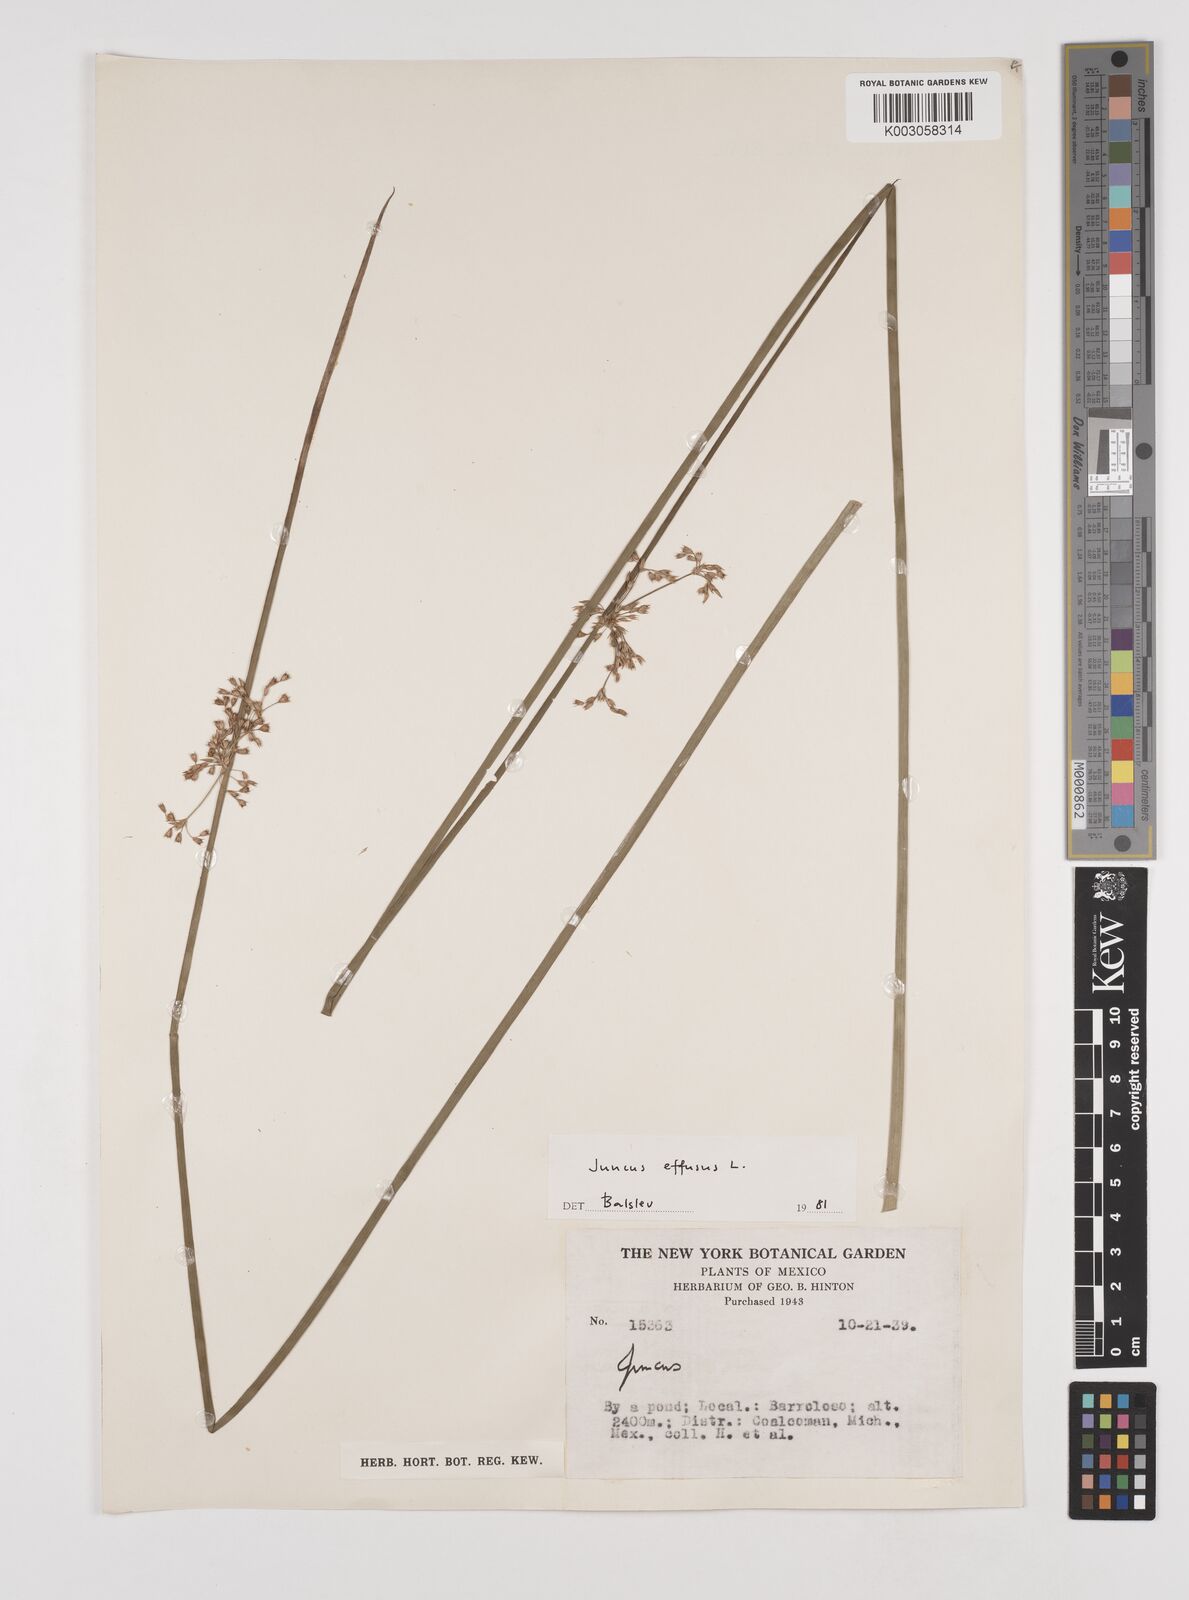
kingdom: Plantae
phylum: Tracheophyta
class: Liliopsida
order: Poales
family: Juncaceae
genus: Juncus
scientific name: Juncus effusus
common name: Soft rush
